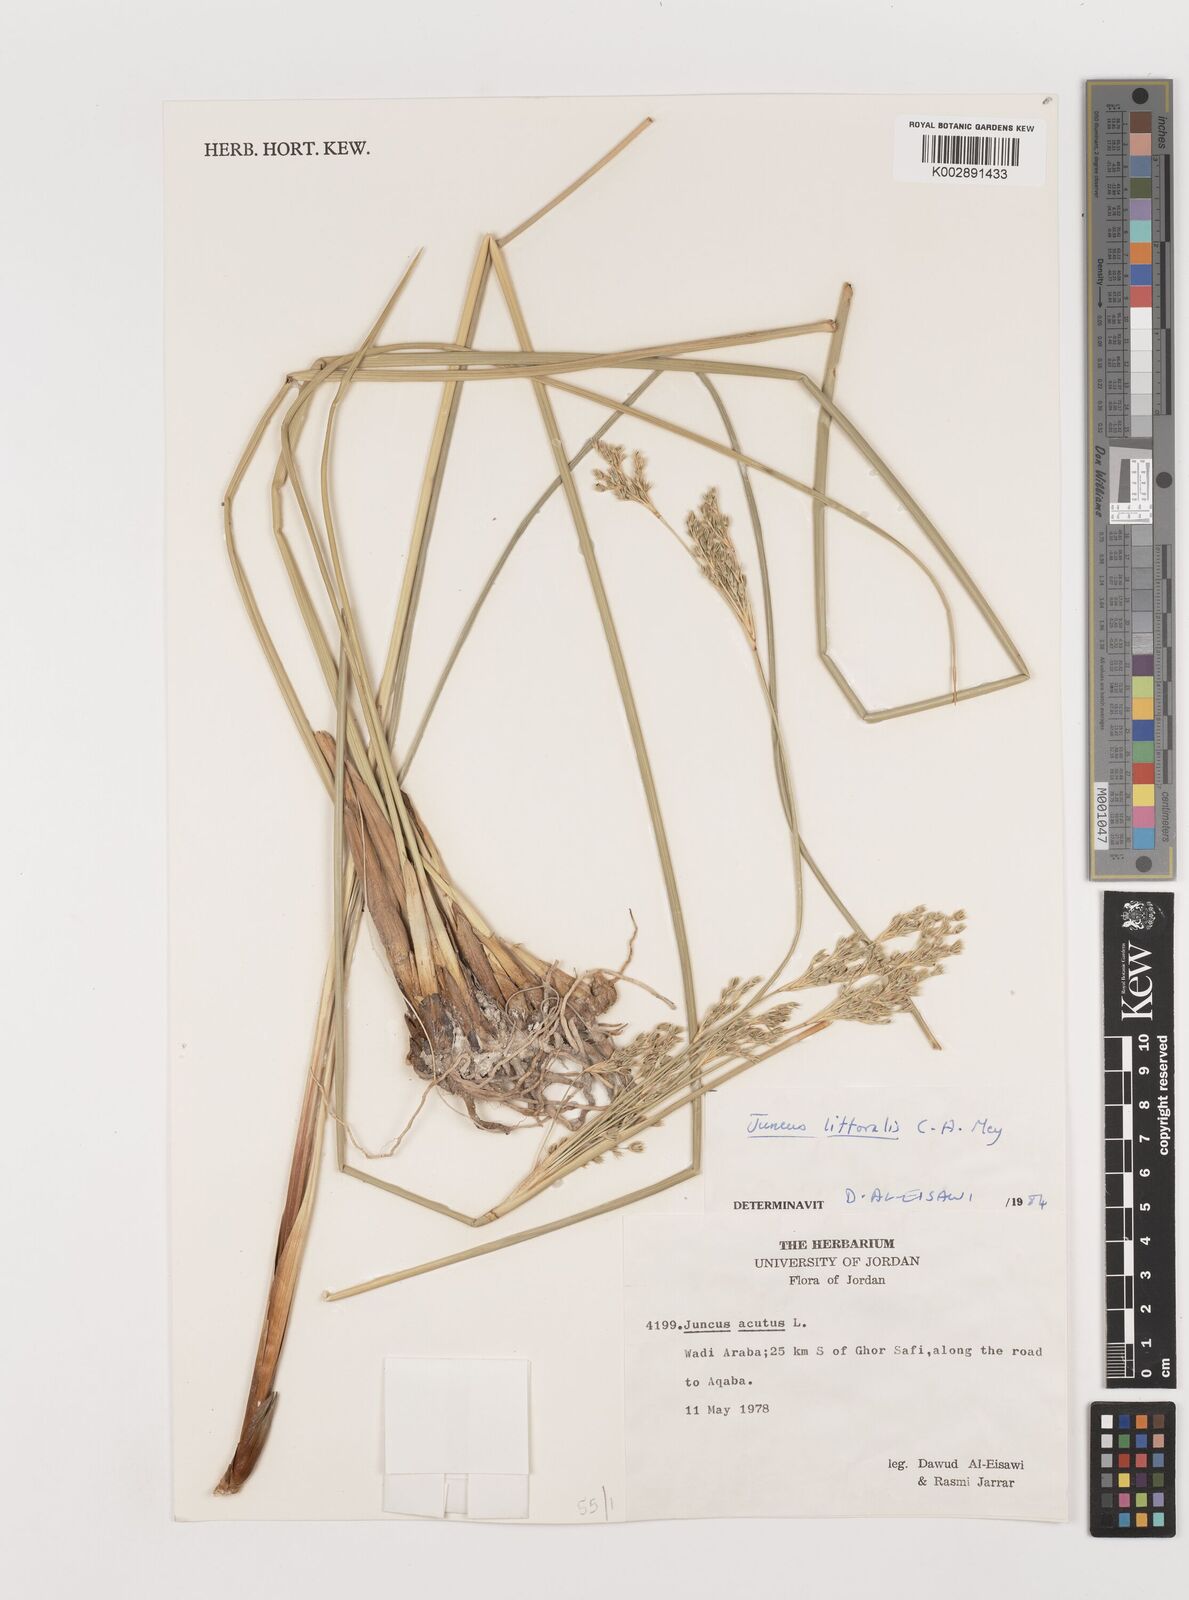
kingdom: Plantae
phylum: Tracheophyta
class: Liliopsida
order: Poales
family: Juncaceae
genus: Juncus
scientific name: Juncus littoralis
